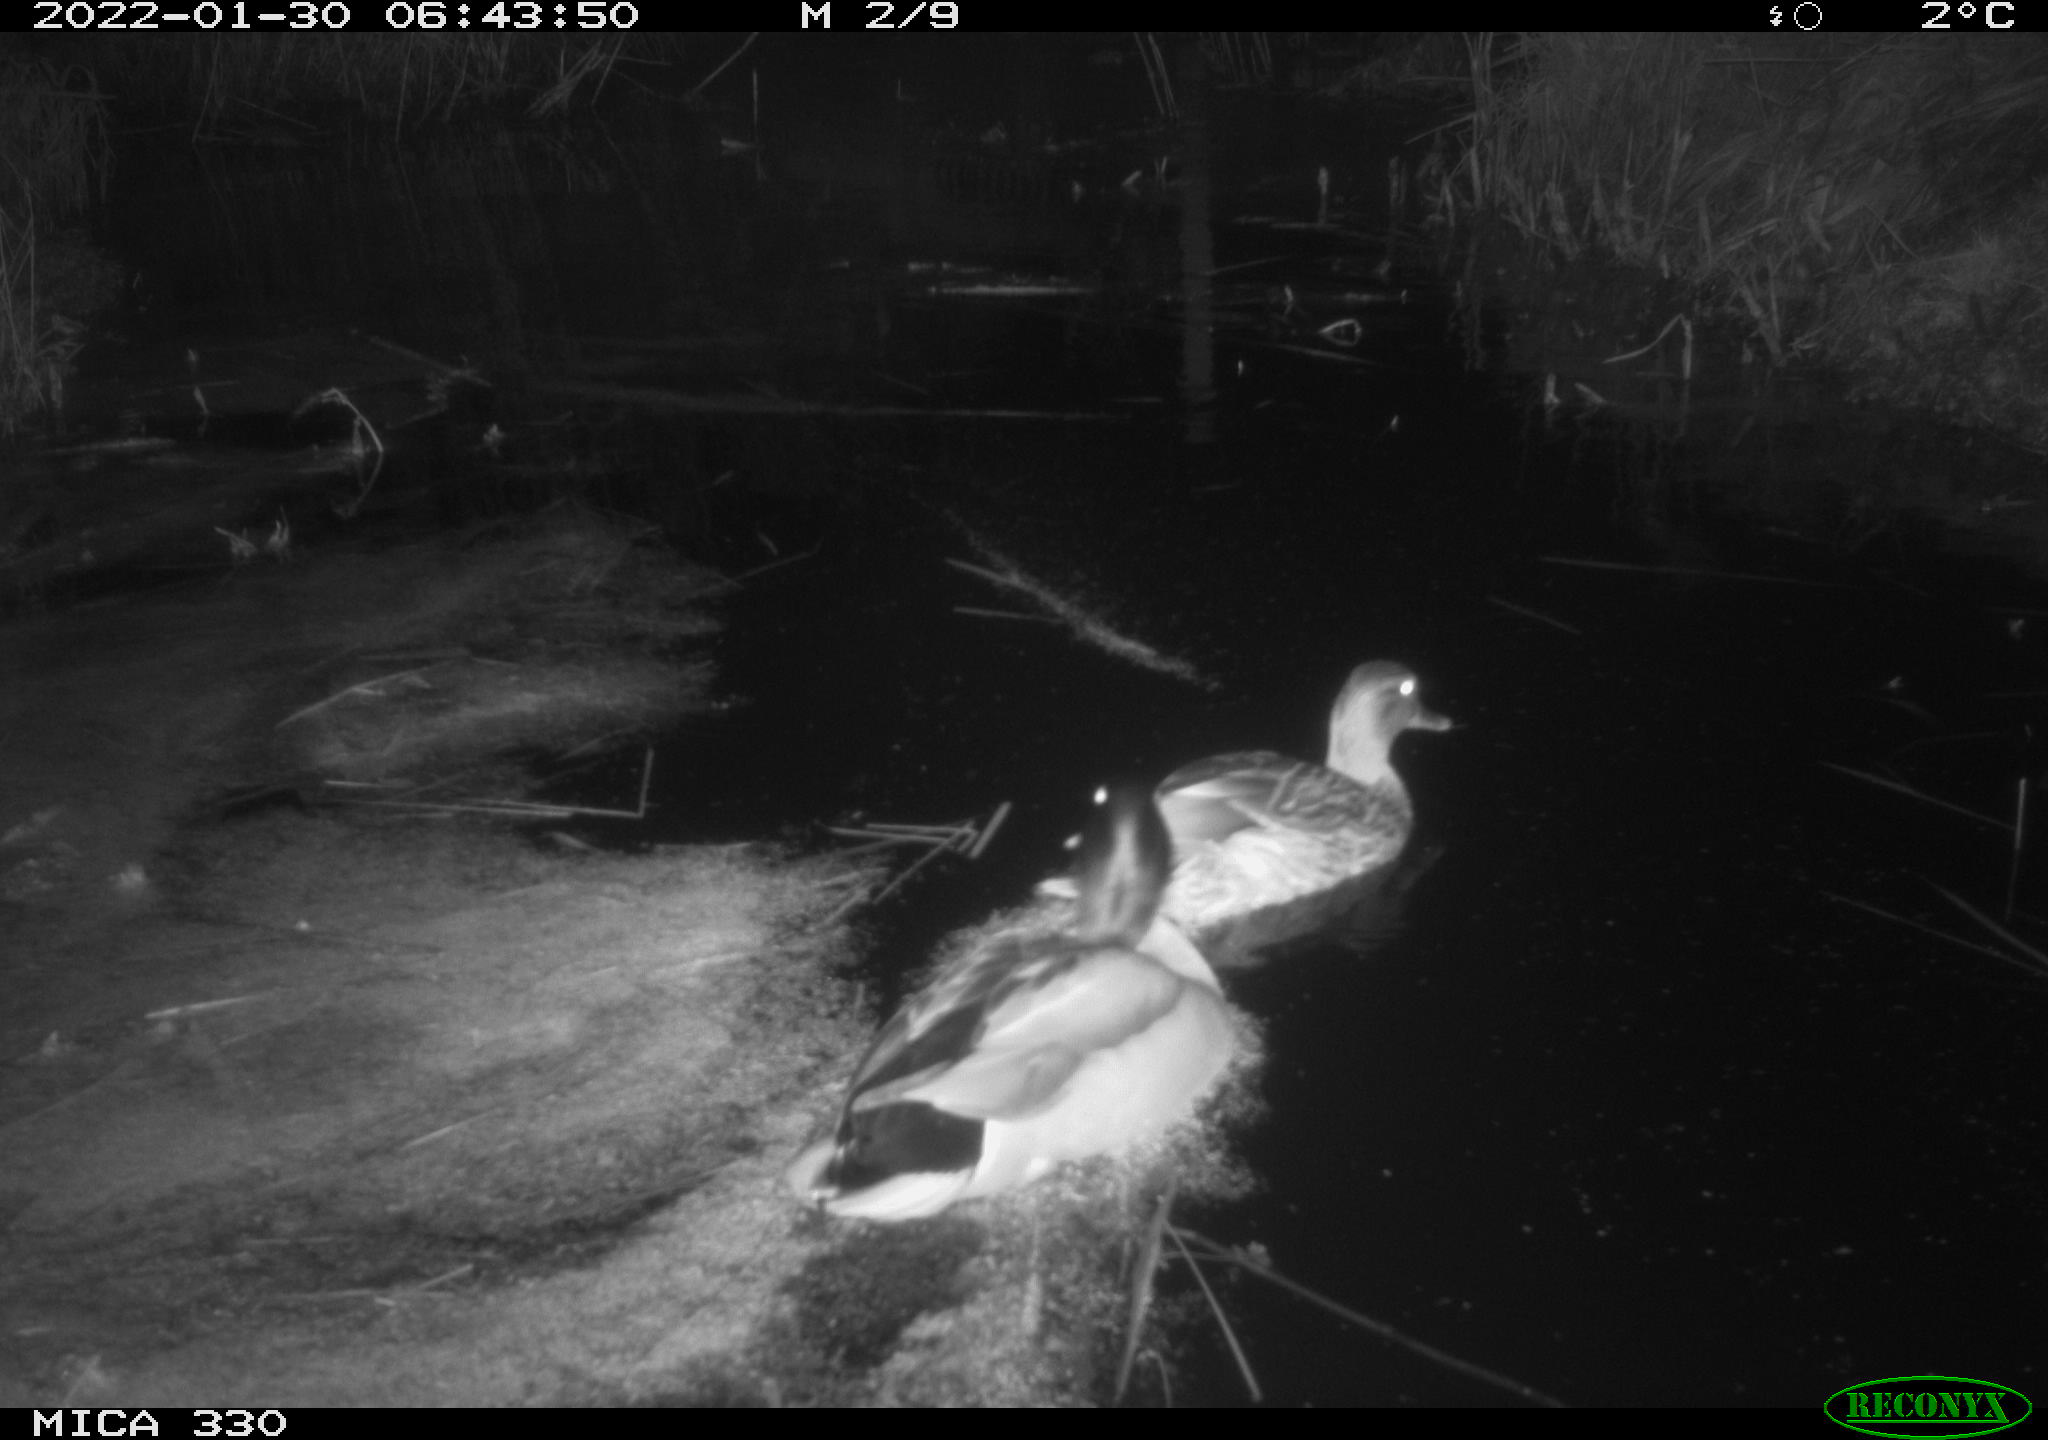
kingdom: Animalia
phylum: Chordata
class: Aves
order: Anseriformes
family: Anatidae
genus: Anas
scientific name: Anas platyrhynchos
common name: Mallard
